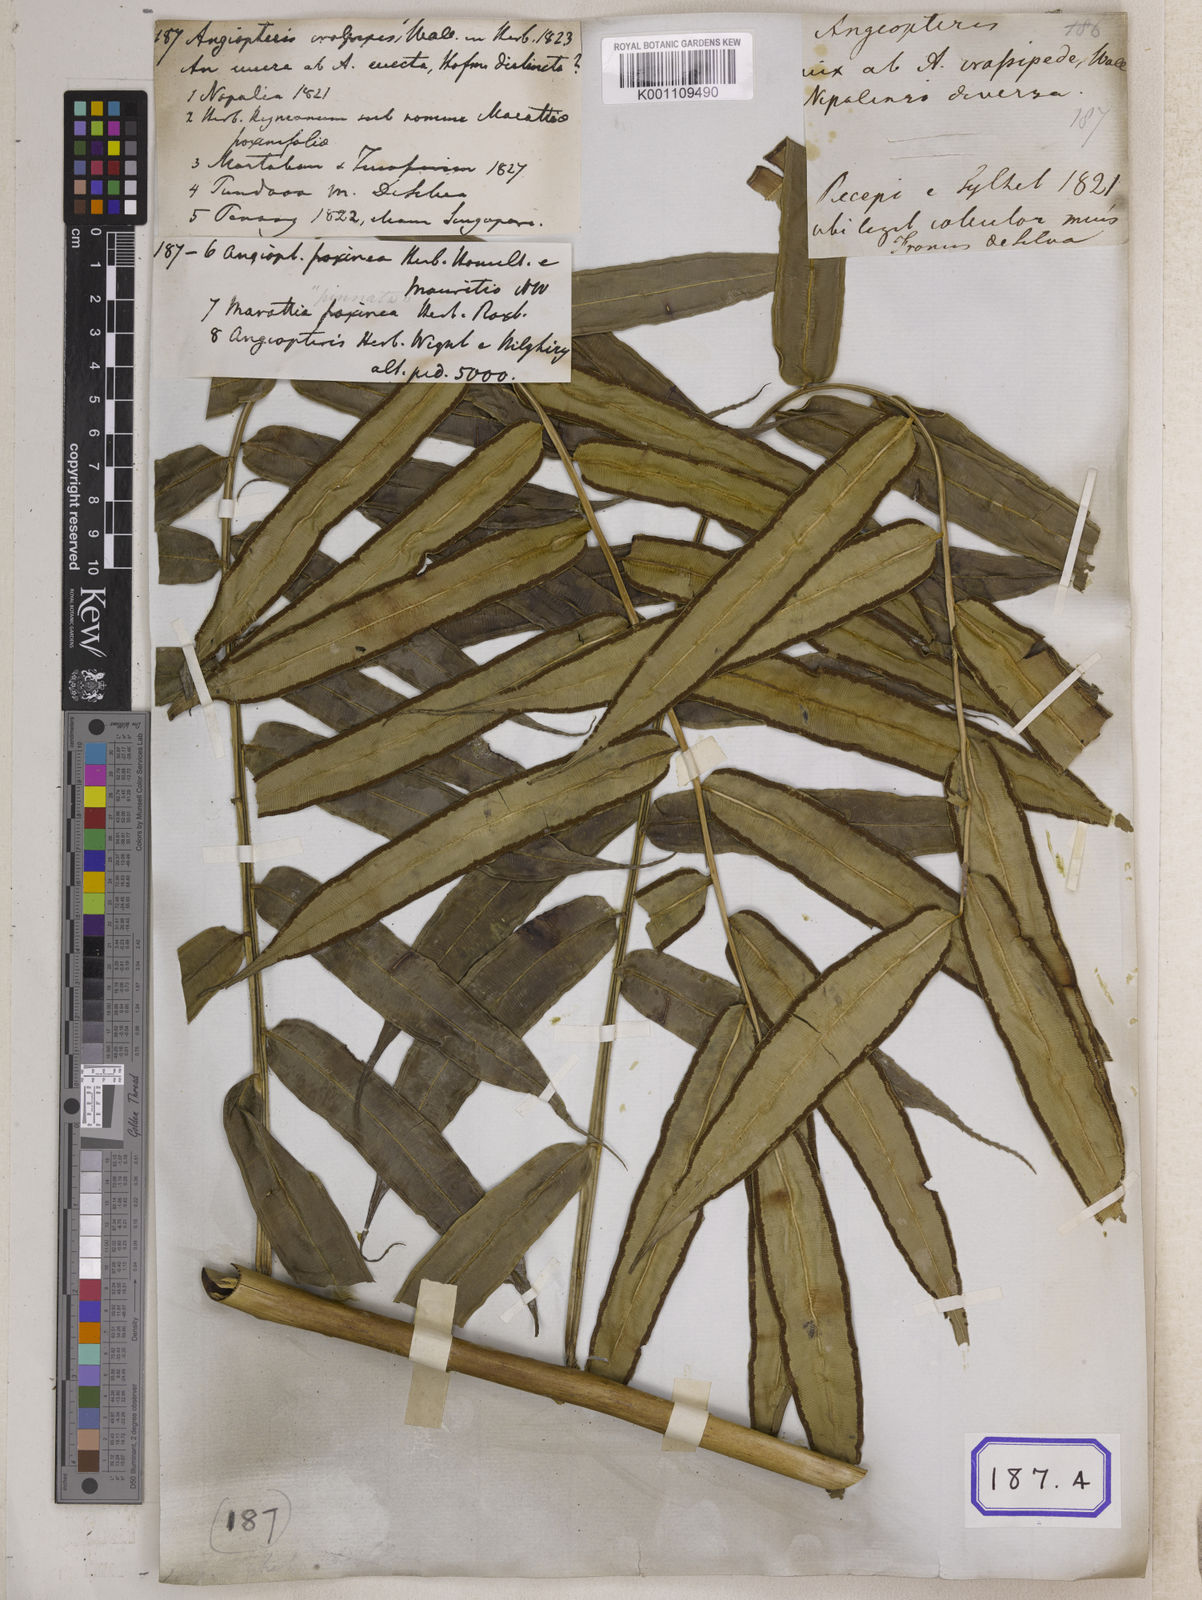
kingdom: Plantae
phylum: Tracheophyta
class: Polypodiopsida
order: Marattiales
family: Marattiaceae
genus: Angiopteris
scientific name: Angiopteris crassipes
